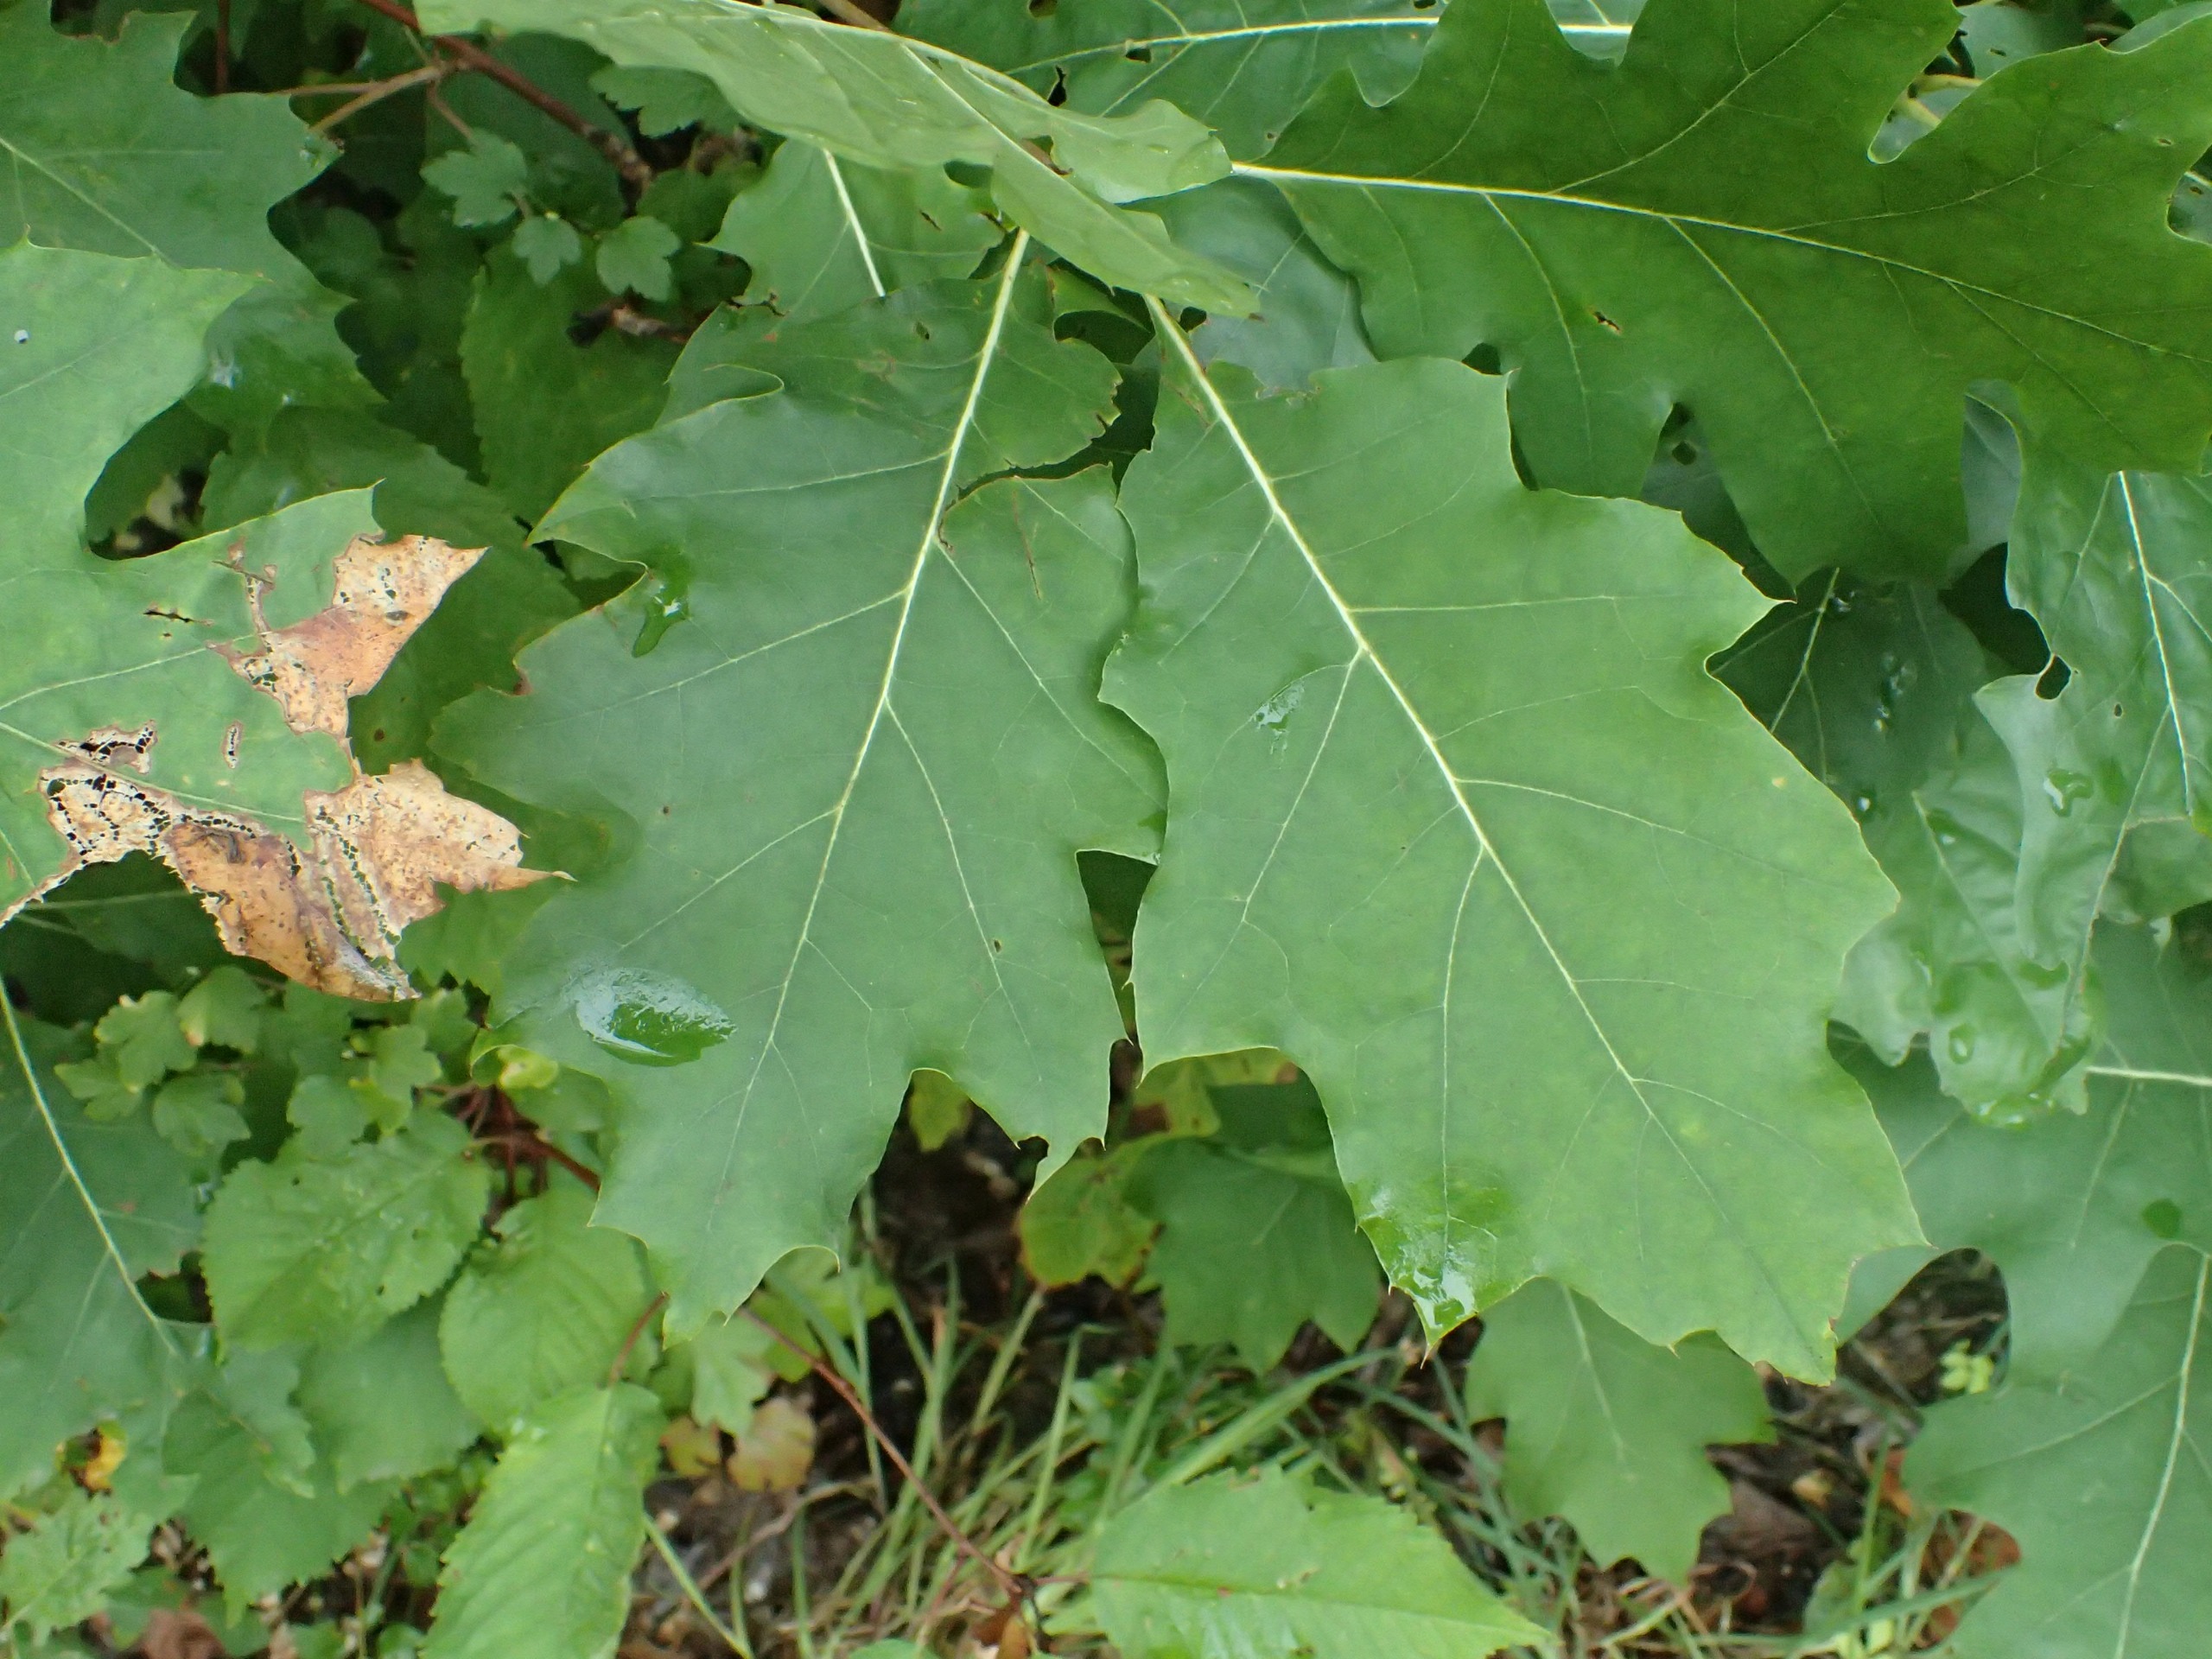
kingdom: Plantae
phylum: Tracheophyta
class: Magnoliopsida
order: Fagales
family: Fagaceae
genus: Quercus
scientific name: Quercus rubra
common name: Rød-eg
